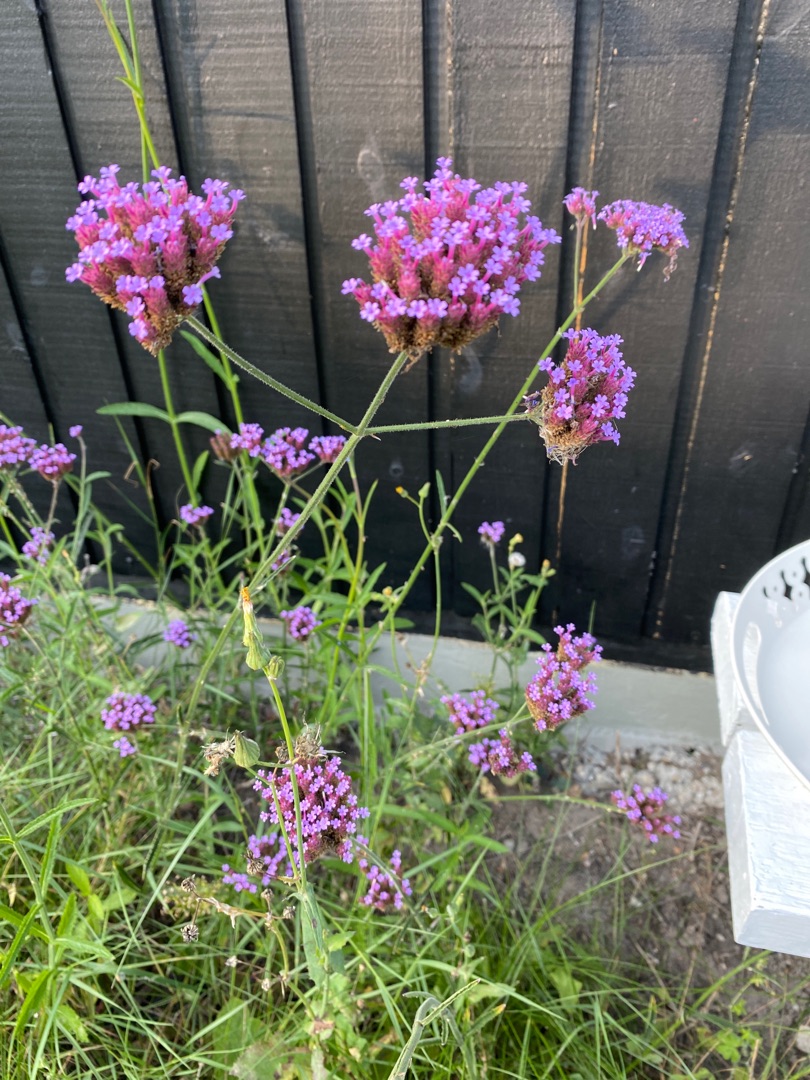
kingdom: Plantae
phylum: Tracheophyta
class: Magnoliopsida
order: Lamiales
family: Verbenaceae
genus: Verbena
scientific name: Verbena bonariensis
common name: Kæmpe-jernurt
